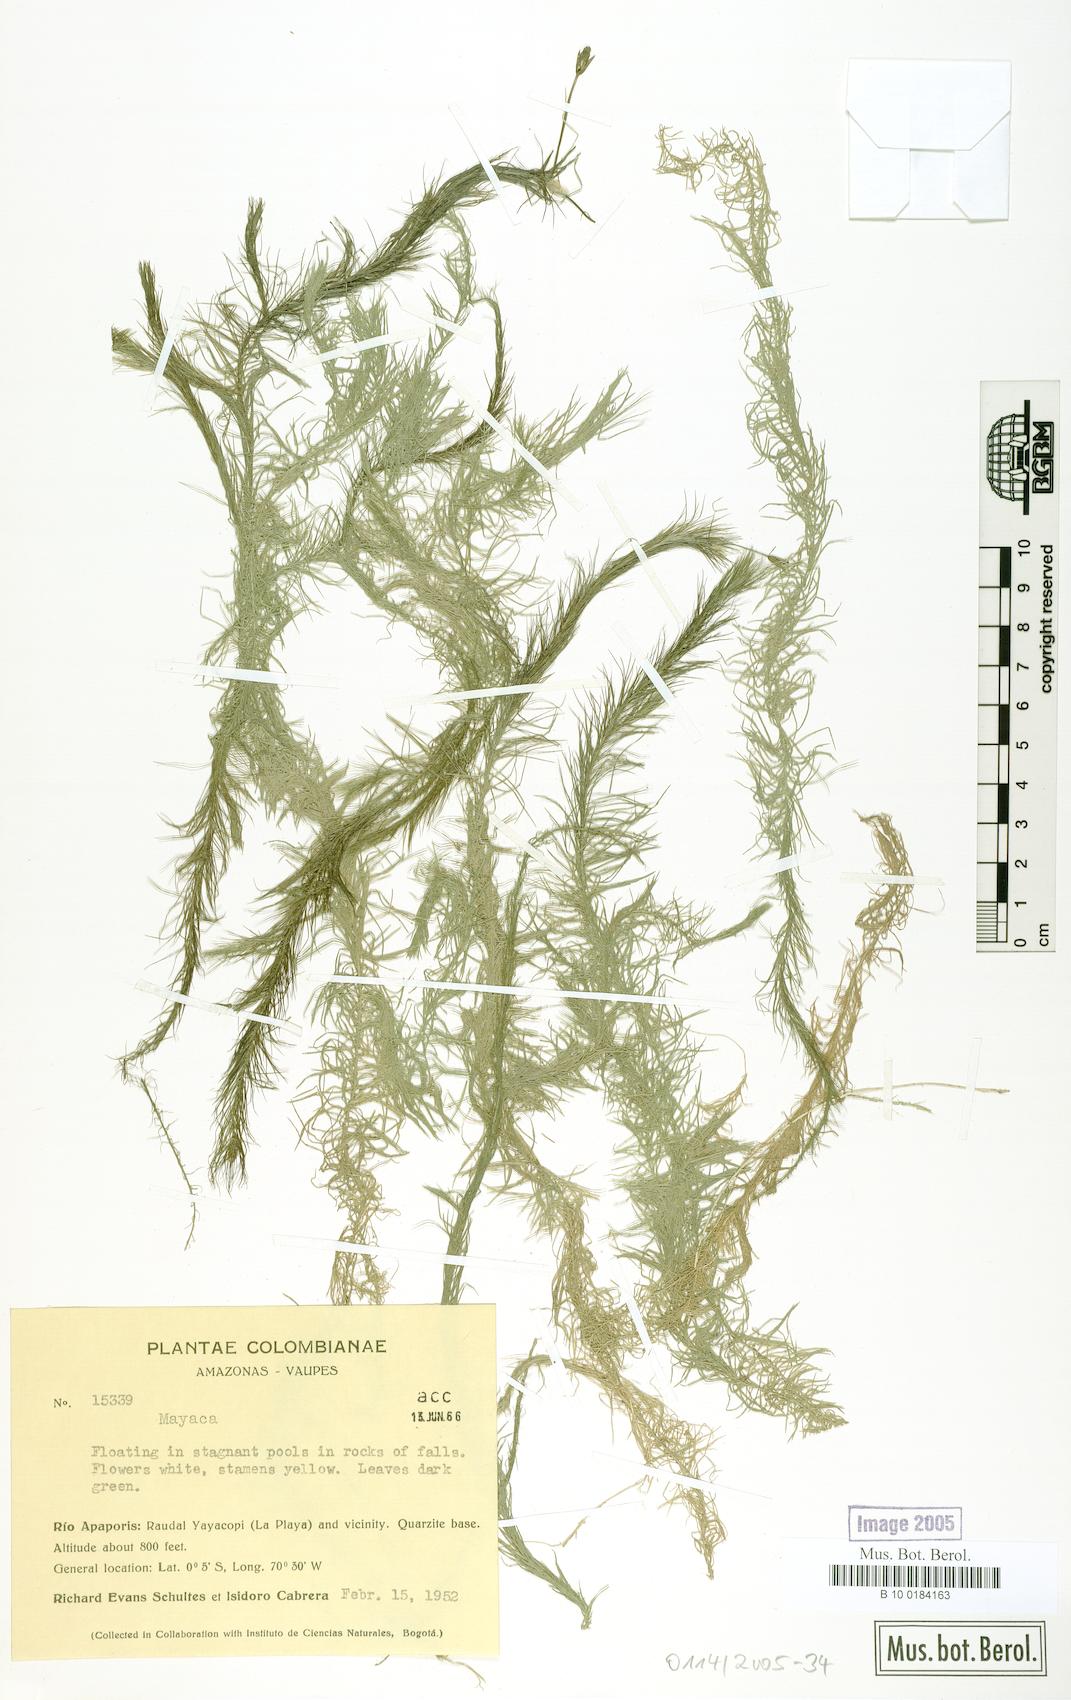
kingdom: Plantae
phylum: Tracheophyta
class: Liliopsida
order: Poales
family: Mayacaceae
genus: Mayaca
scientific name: Mayaca
